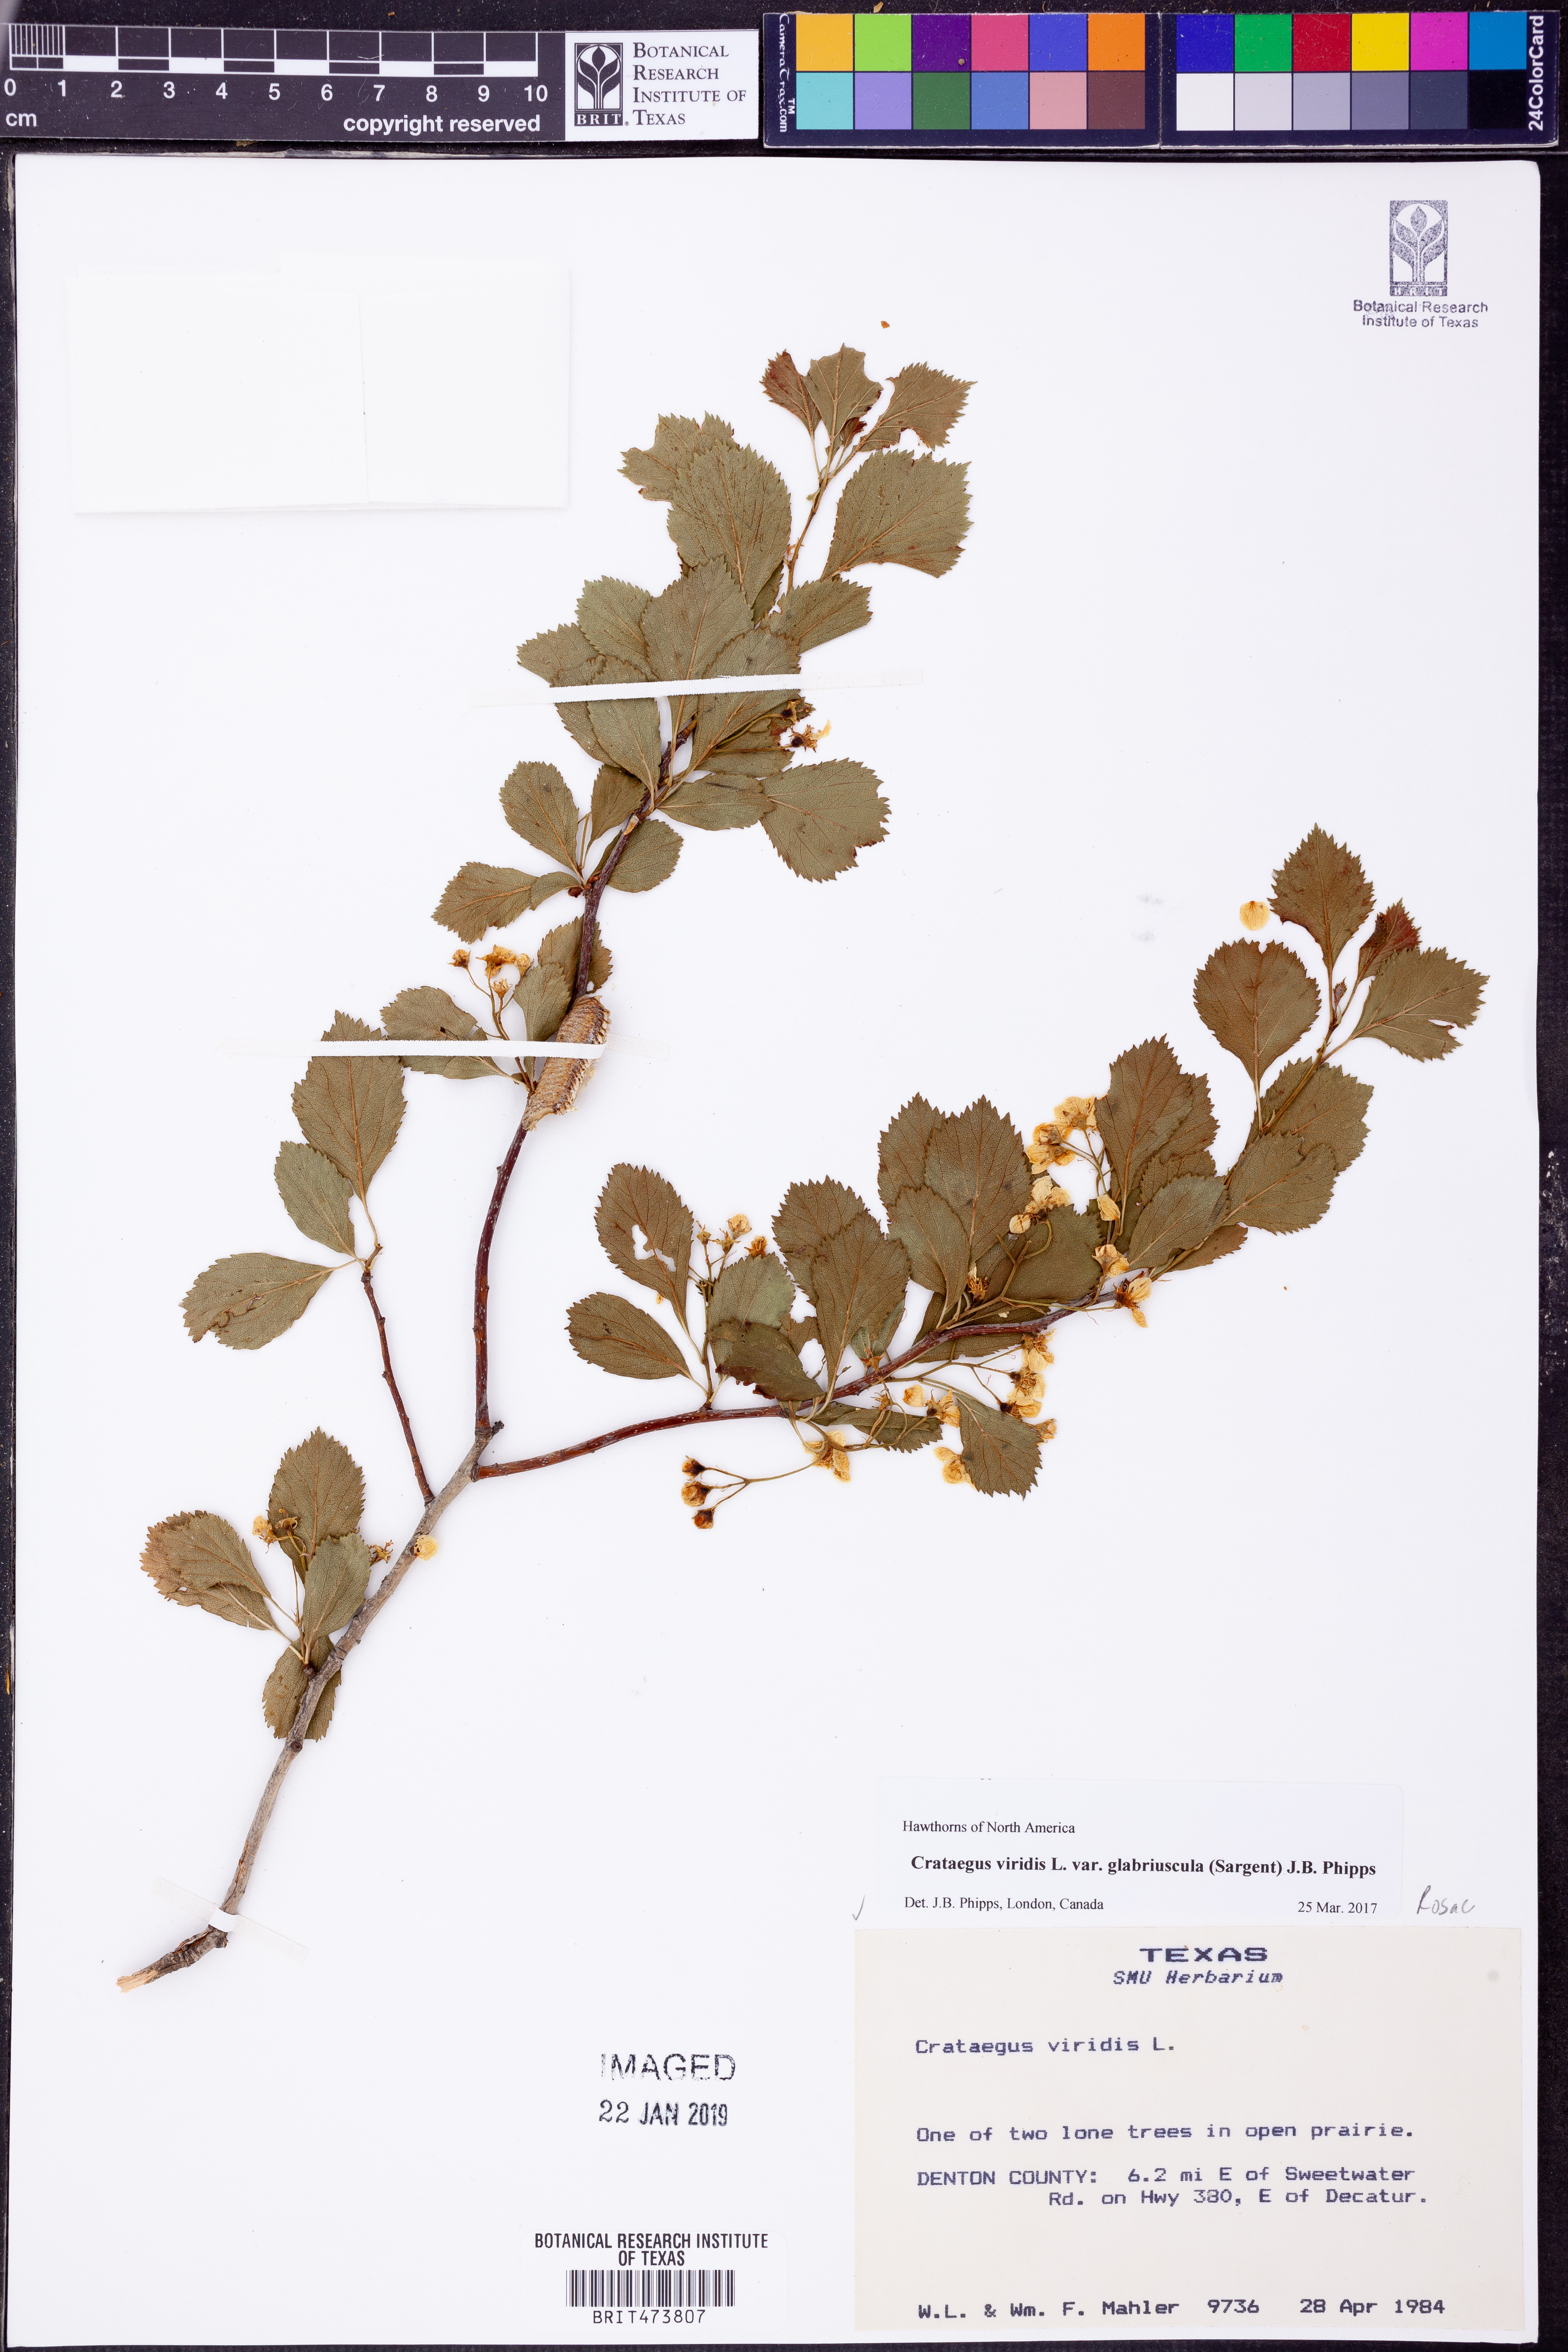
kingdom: Plantae
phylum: Tracheophyta
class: Magnoliopsida
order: Rosales
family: Rosaceae
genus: Crataegus
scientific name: Crataegus viridis
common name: Southernthorn
